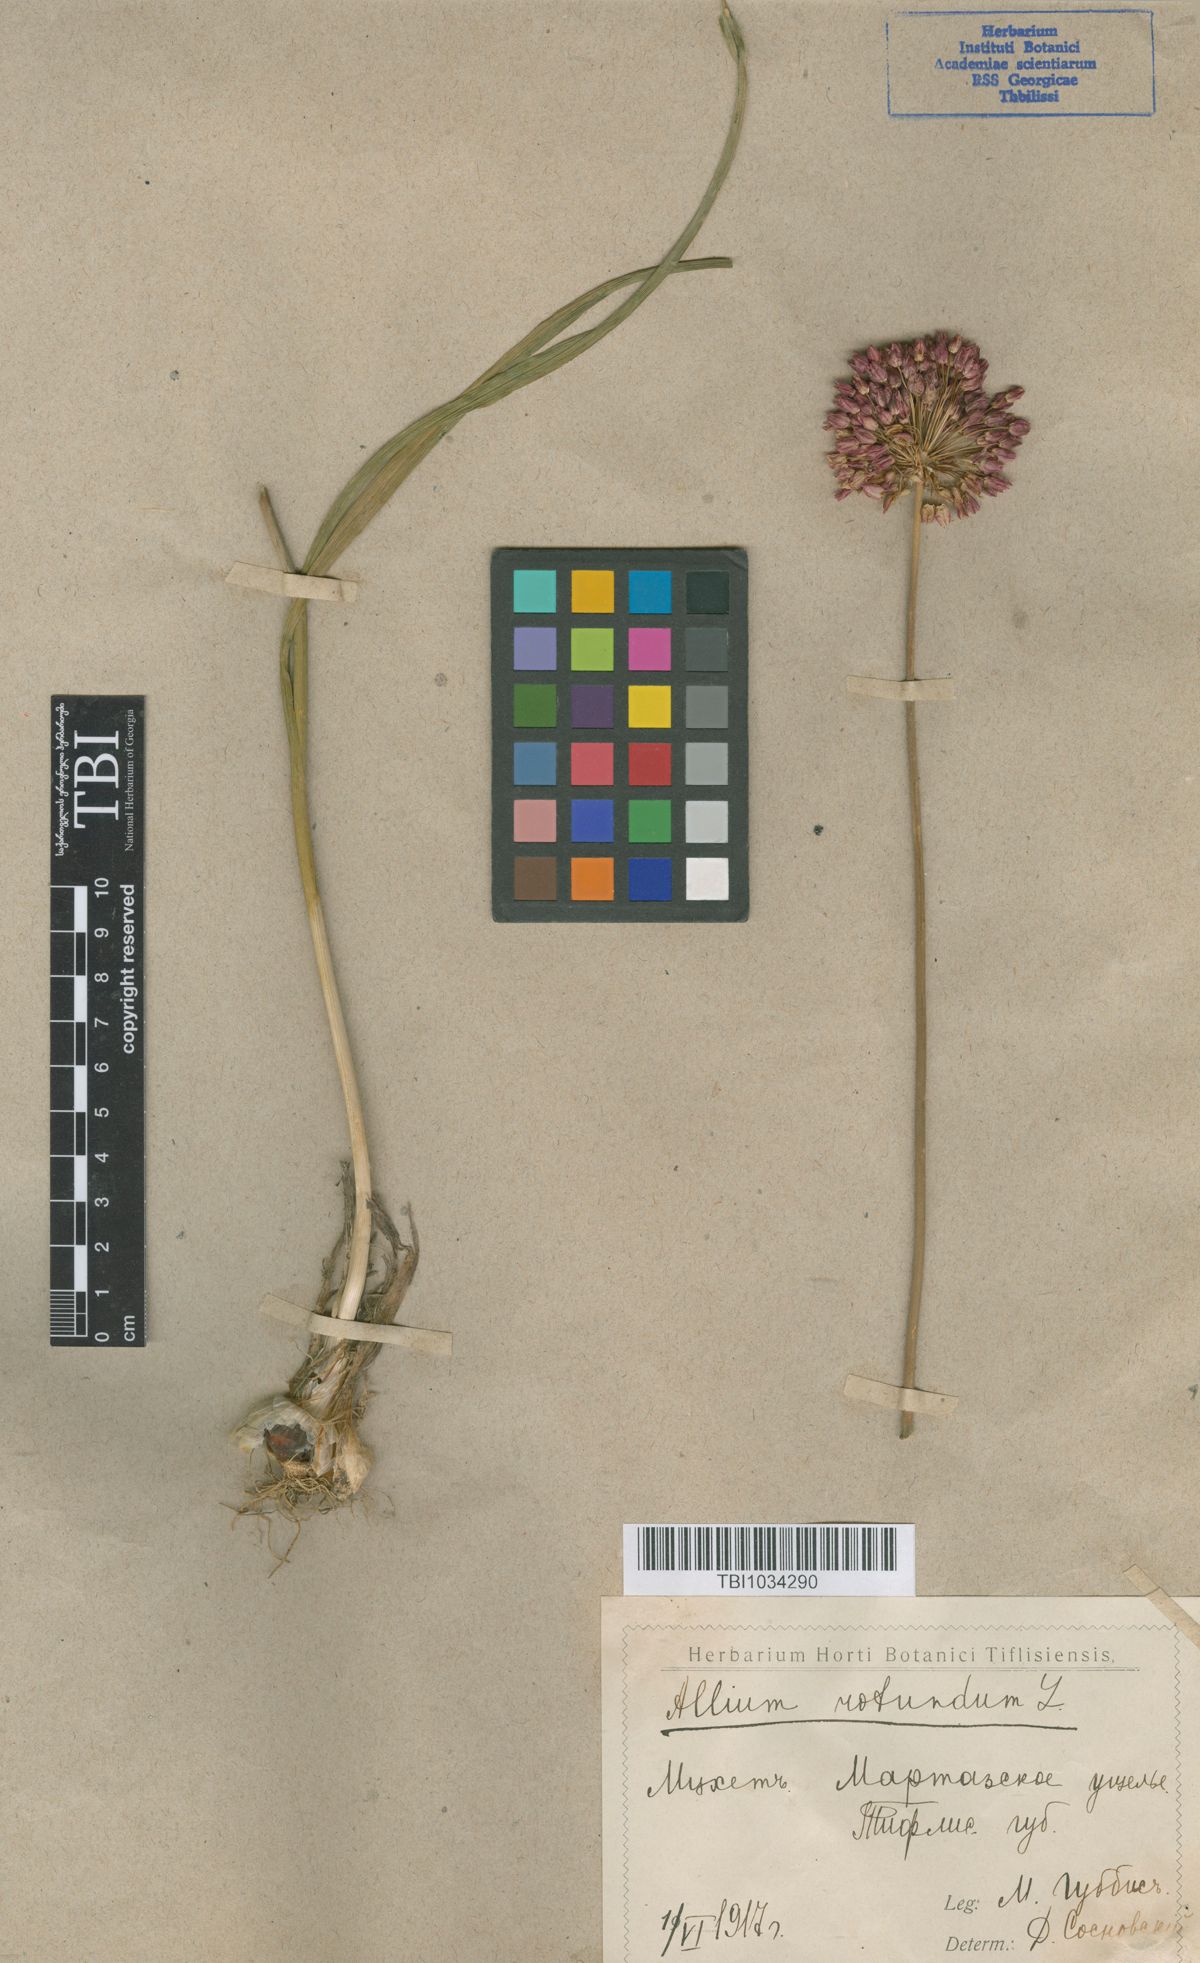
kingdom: Plantae
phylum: Tracheophyta
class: Liliopsida
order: Asparagales
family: Amaryllidaceae
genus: Allium
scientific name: Allium rotundum
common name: Sand leek
